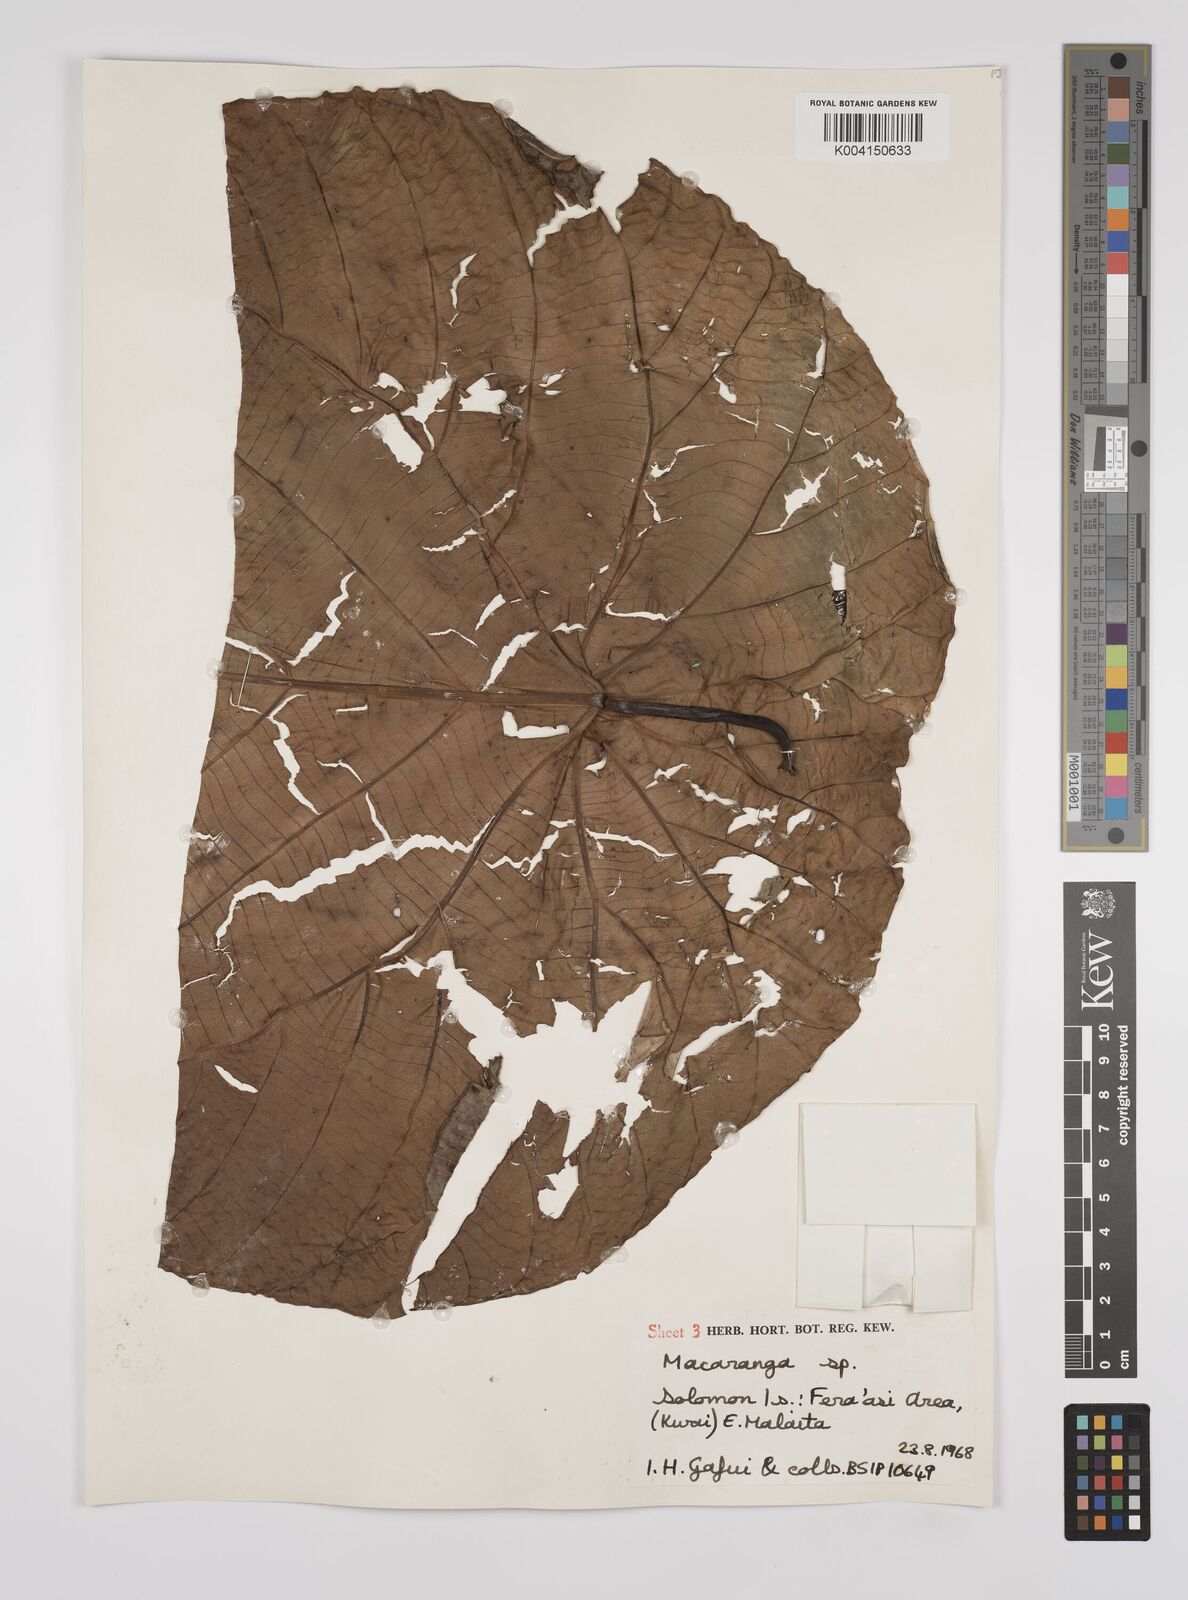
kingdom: Plantae
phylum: Tracheophyta
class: Magnoliopsida
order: Malpighiales
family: Euphorbiaceae
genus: Macaranga
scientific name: Macaranga whitmorei
